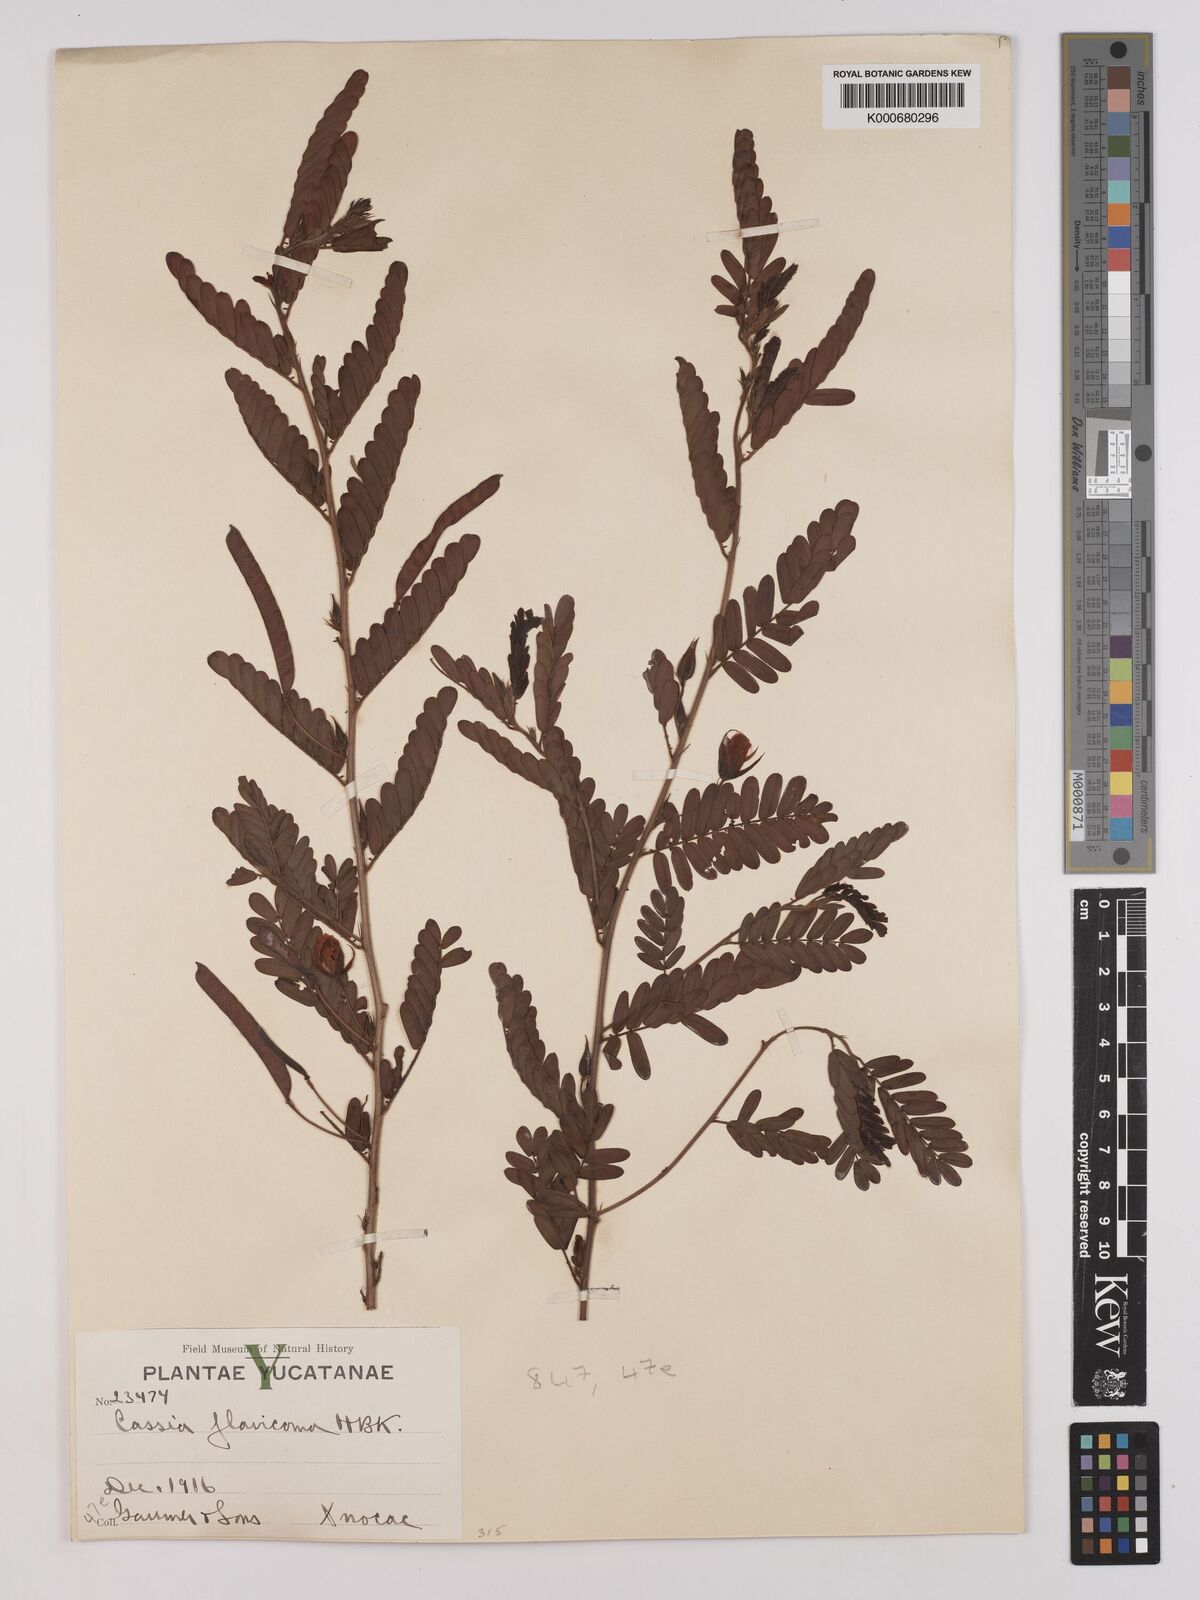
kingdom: Plantae
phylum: Tracheophyta
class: Magnoliopsida
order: Fabales
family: Fabaceae
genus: Chamaecrista
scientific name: Chamaecrista glandulosa
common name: Wild peas
